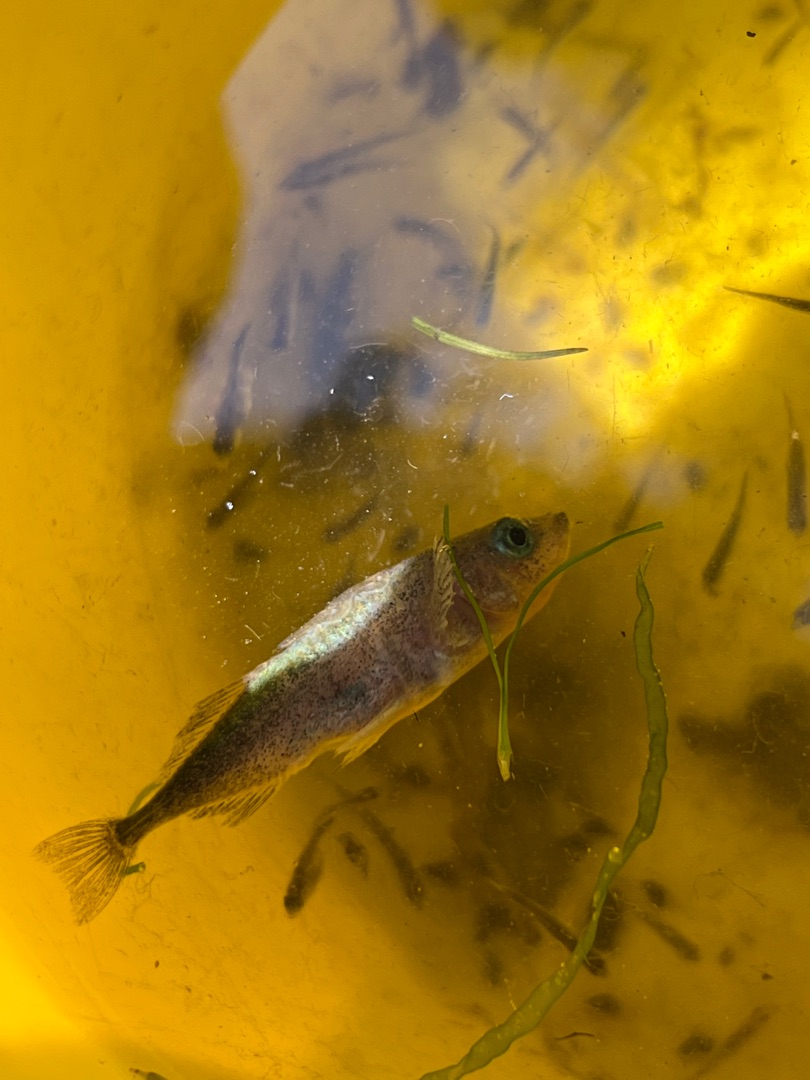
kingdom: Animalia
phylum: Chordata
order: Gasterosteiformes
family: Gasterosteidae
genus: Gasterosteus
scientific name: Gasterosteus aculeatus
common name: Trepigget hundestejle
